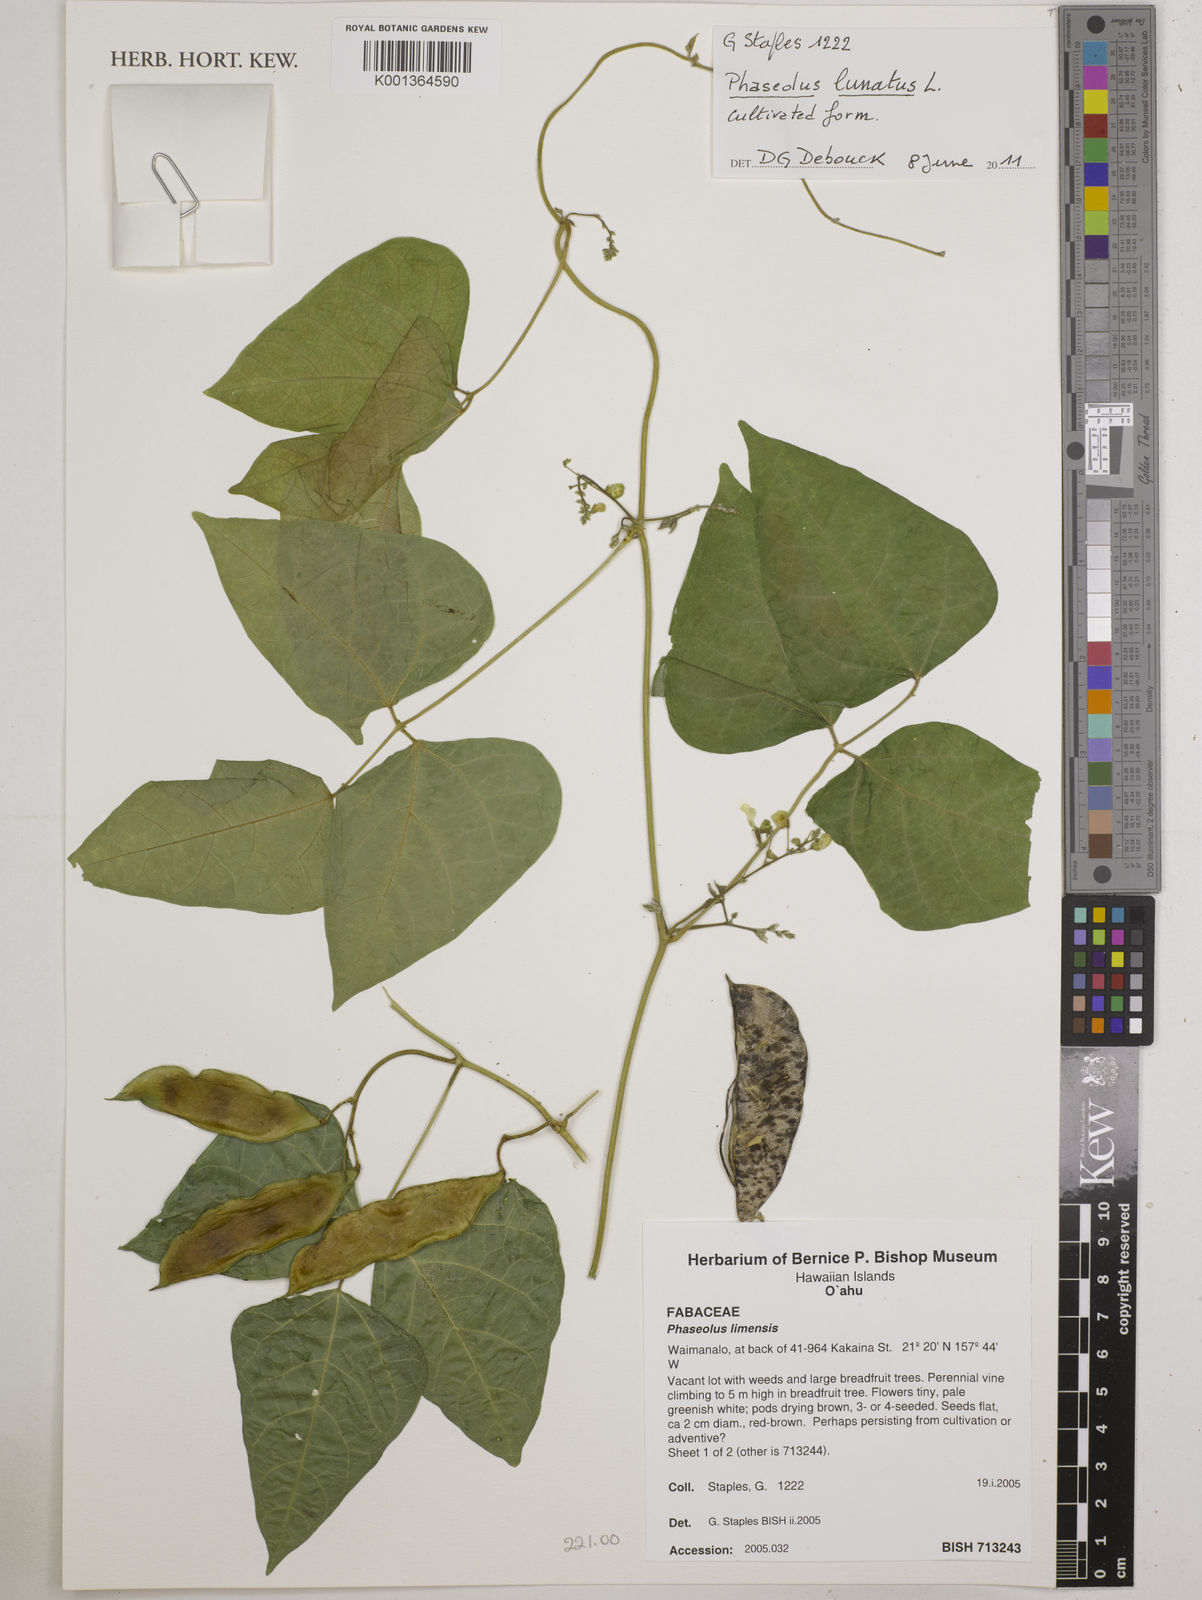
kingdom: Plantae
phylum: Tracheophyta
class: Magnoliopsida
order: Fabales
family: Fabaceae
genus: Phaseolus
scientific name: Phaseolus lunatus
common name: Sieva bean
